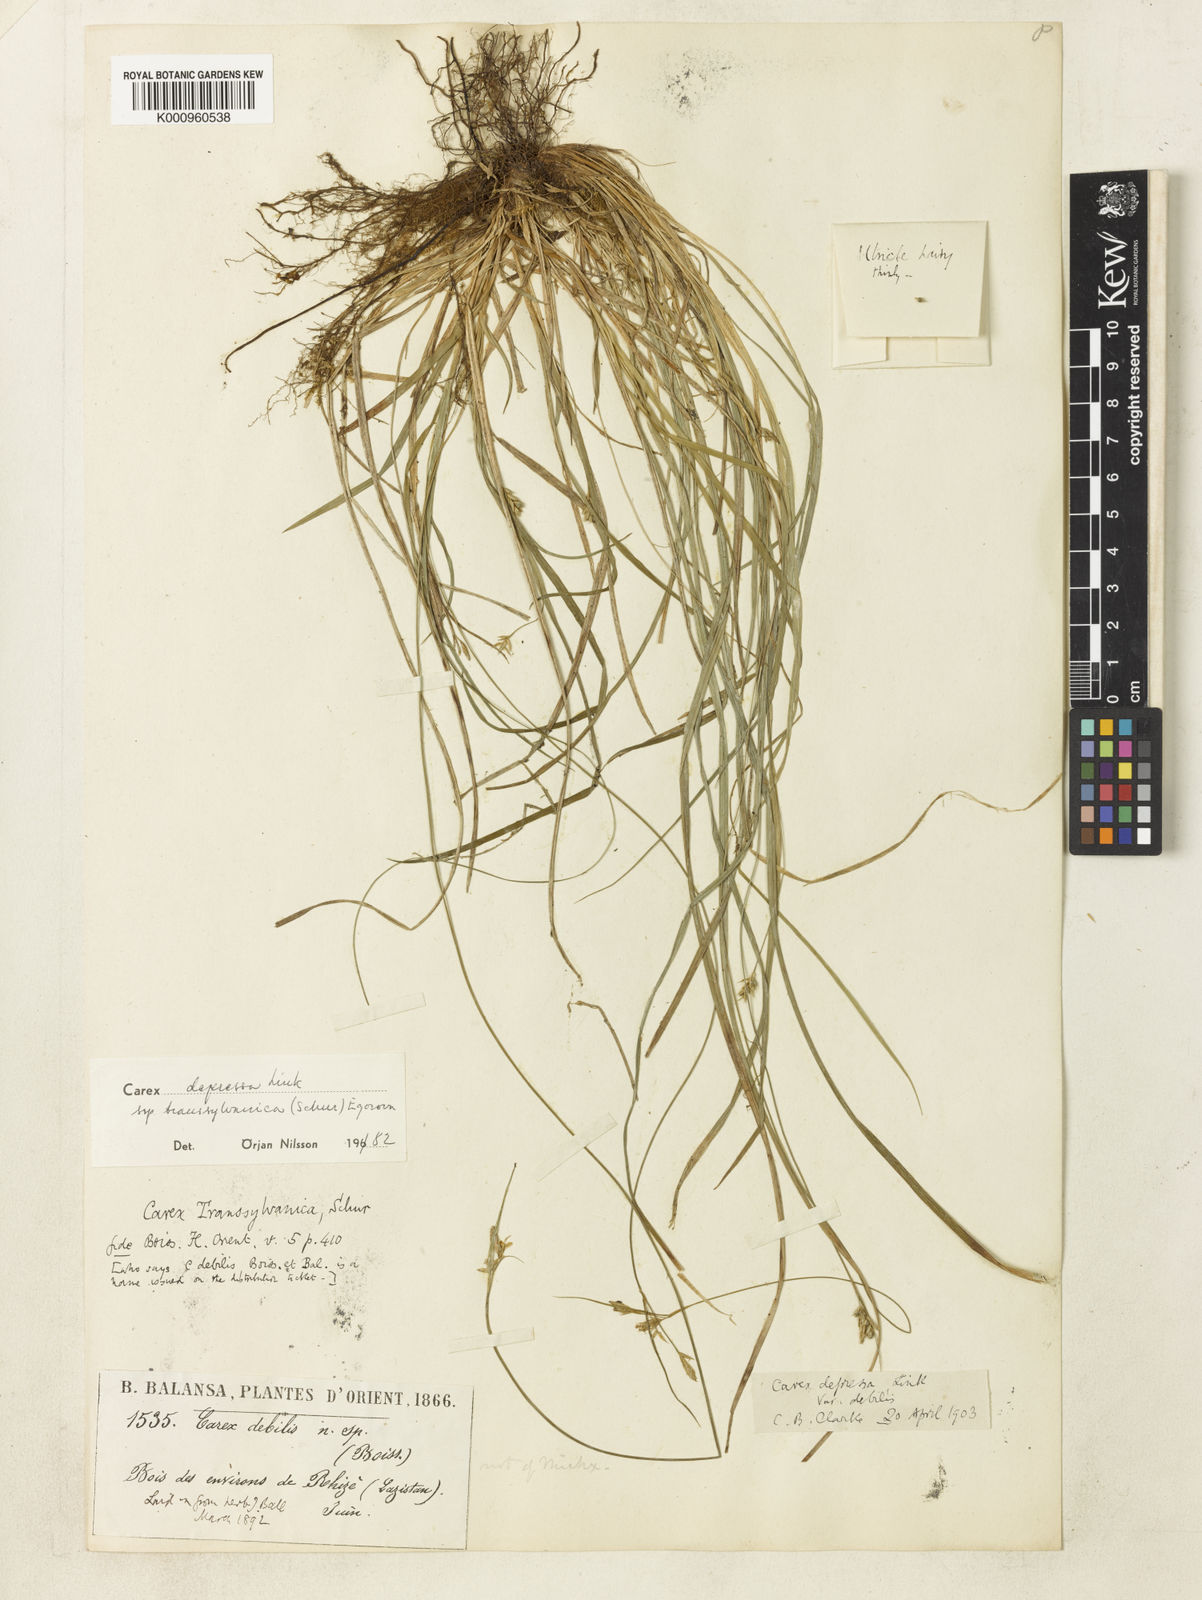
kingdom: Plantae
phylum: Tracheophyta
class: Liliopsida
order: Poales
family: Cyperaceae
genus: Carex
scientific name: Carex depressa
